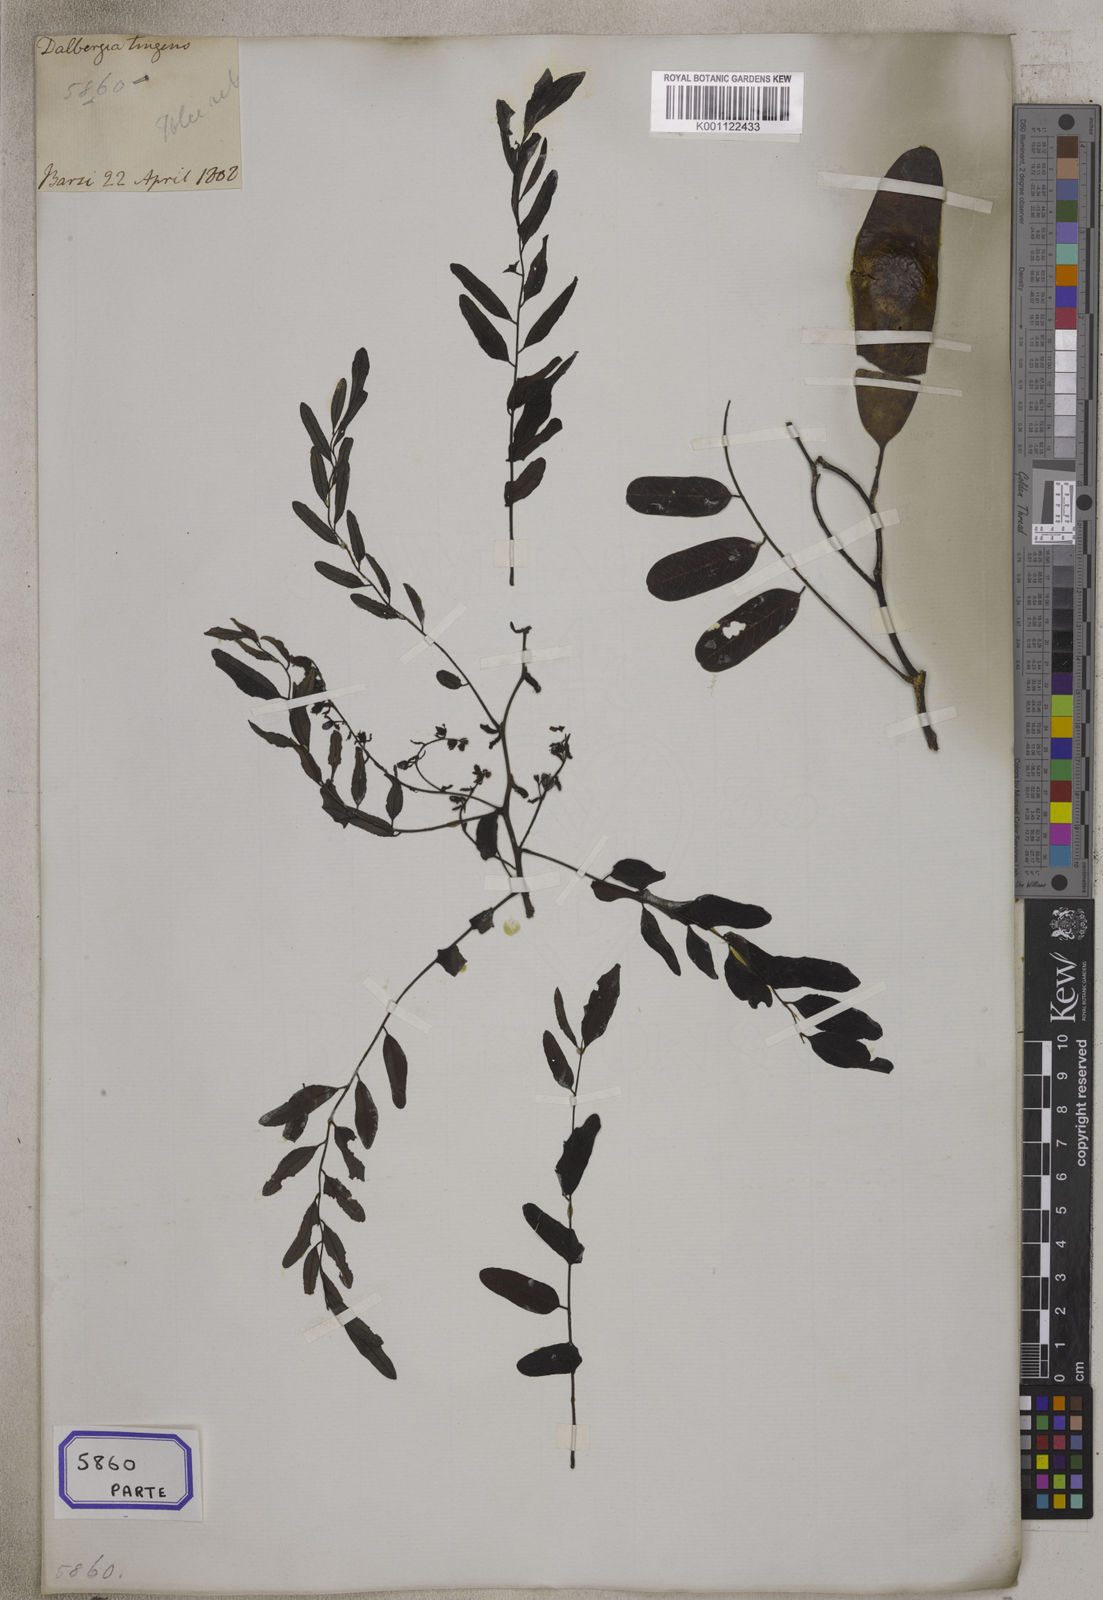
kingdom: Plantae
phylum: Tracheophyta
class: Magnoliopsida
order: Fabales
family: Fabaceae
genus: Dalbergia
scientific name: Dalbergia
